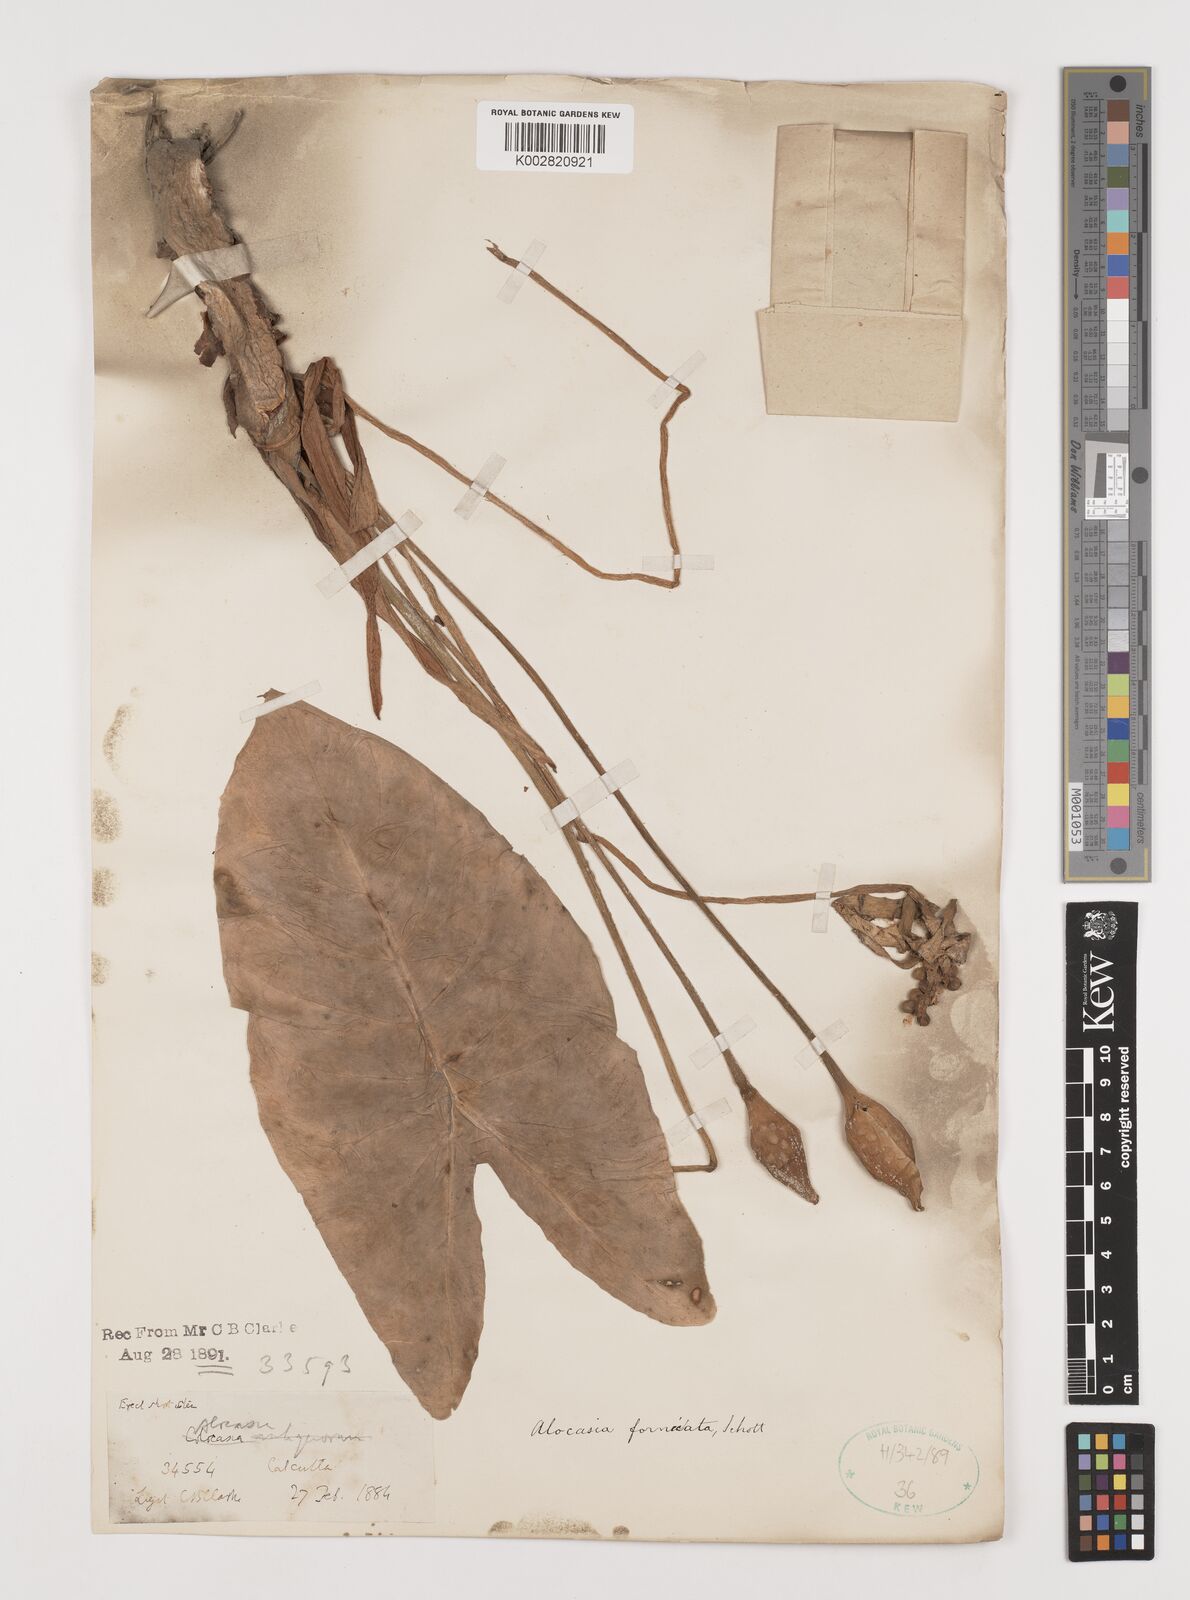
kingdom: Plantae
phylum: Tracheophyta
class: Liliopsida
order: Alismatales
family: Araceae
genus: Alocasia
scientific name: Alocasia fornicata
